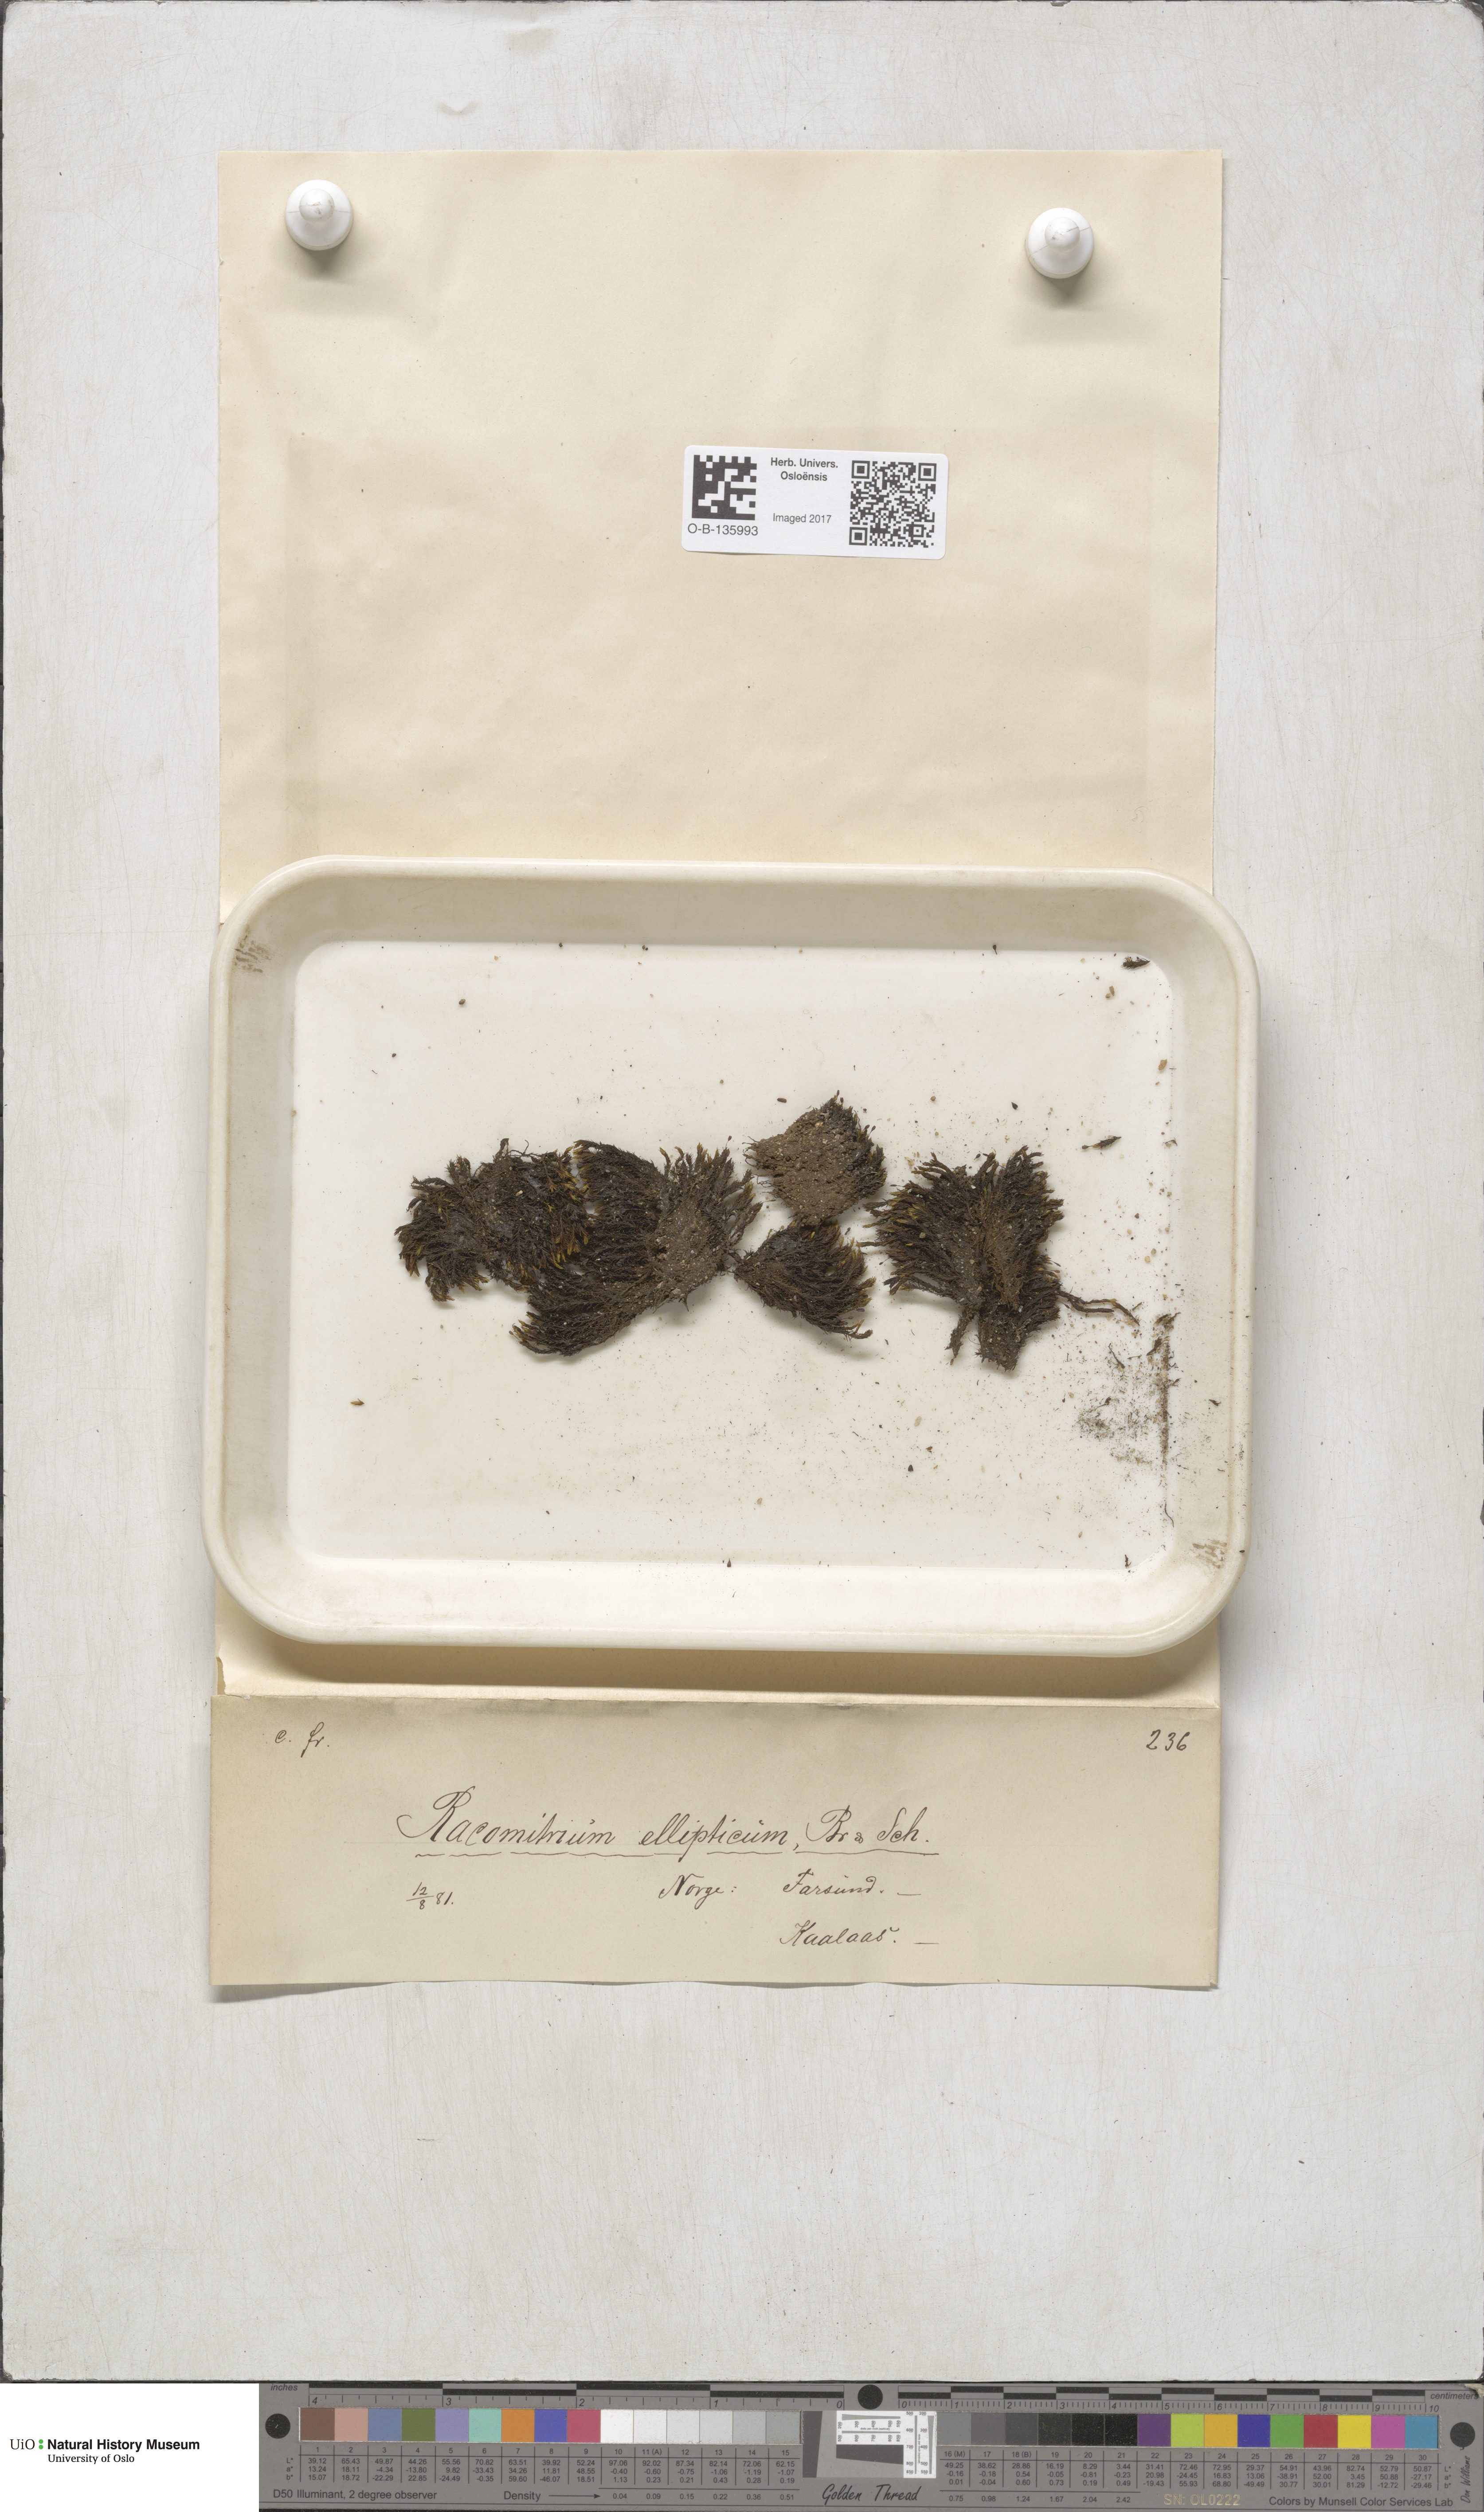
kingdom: Plantae
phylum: Bryophyta
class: Bryopsida
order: Grimmiales
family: Grimmiaceae
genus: Bucklandiella
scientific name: Bucklandiella elliptica
